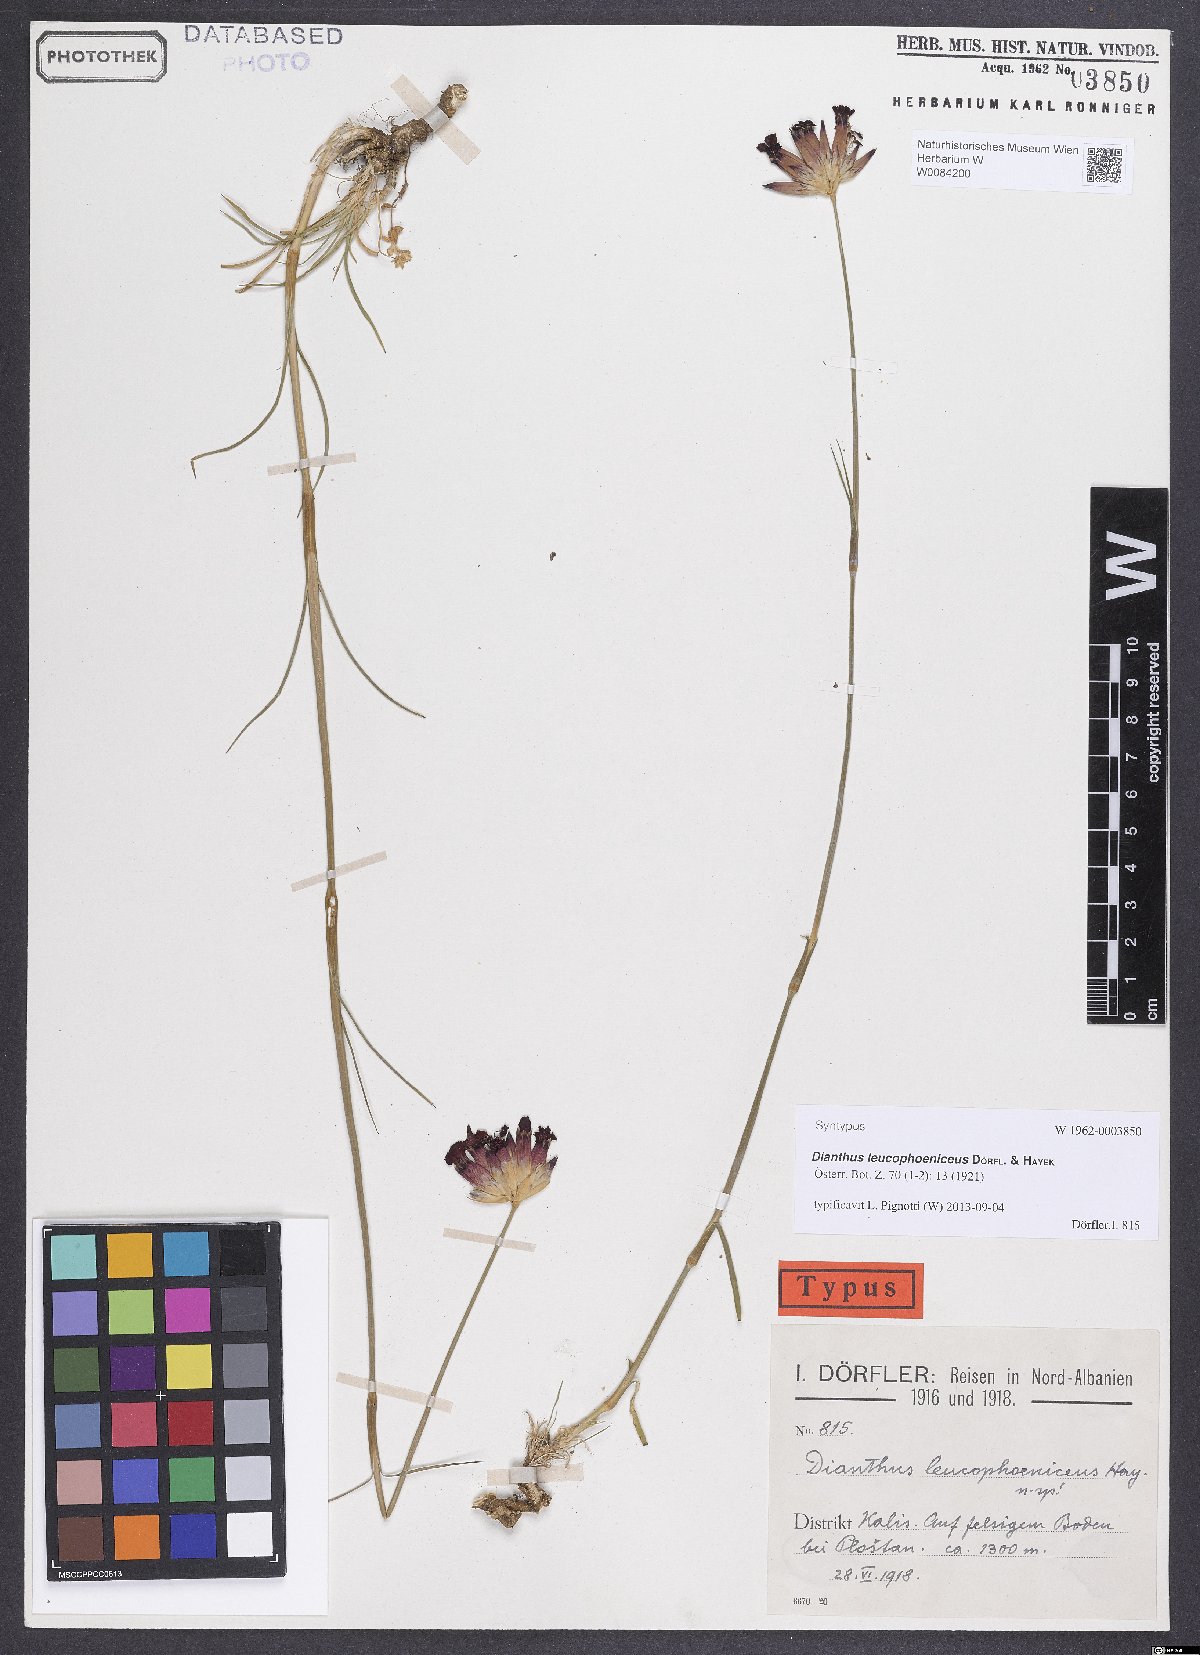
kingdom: Plantae
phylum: Tracheophyta
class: Magnoliopsida
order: Caryophyllales
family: Caryophyllaceae
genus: Dianthus
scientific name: Dianthus leucophoeniceus
